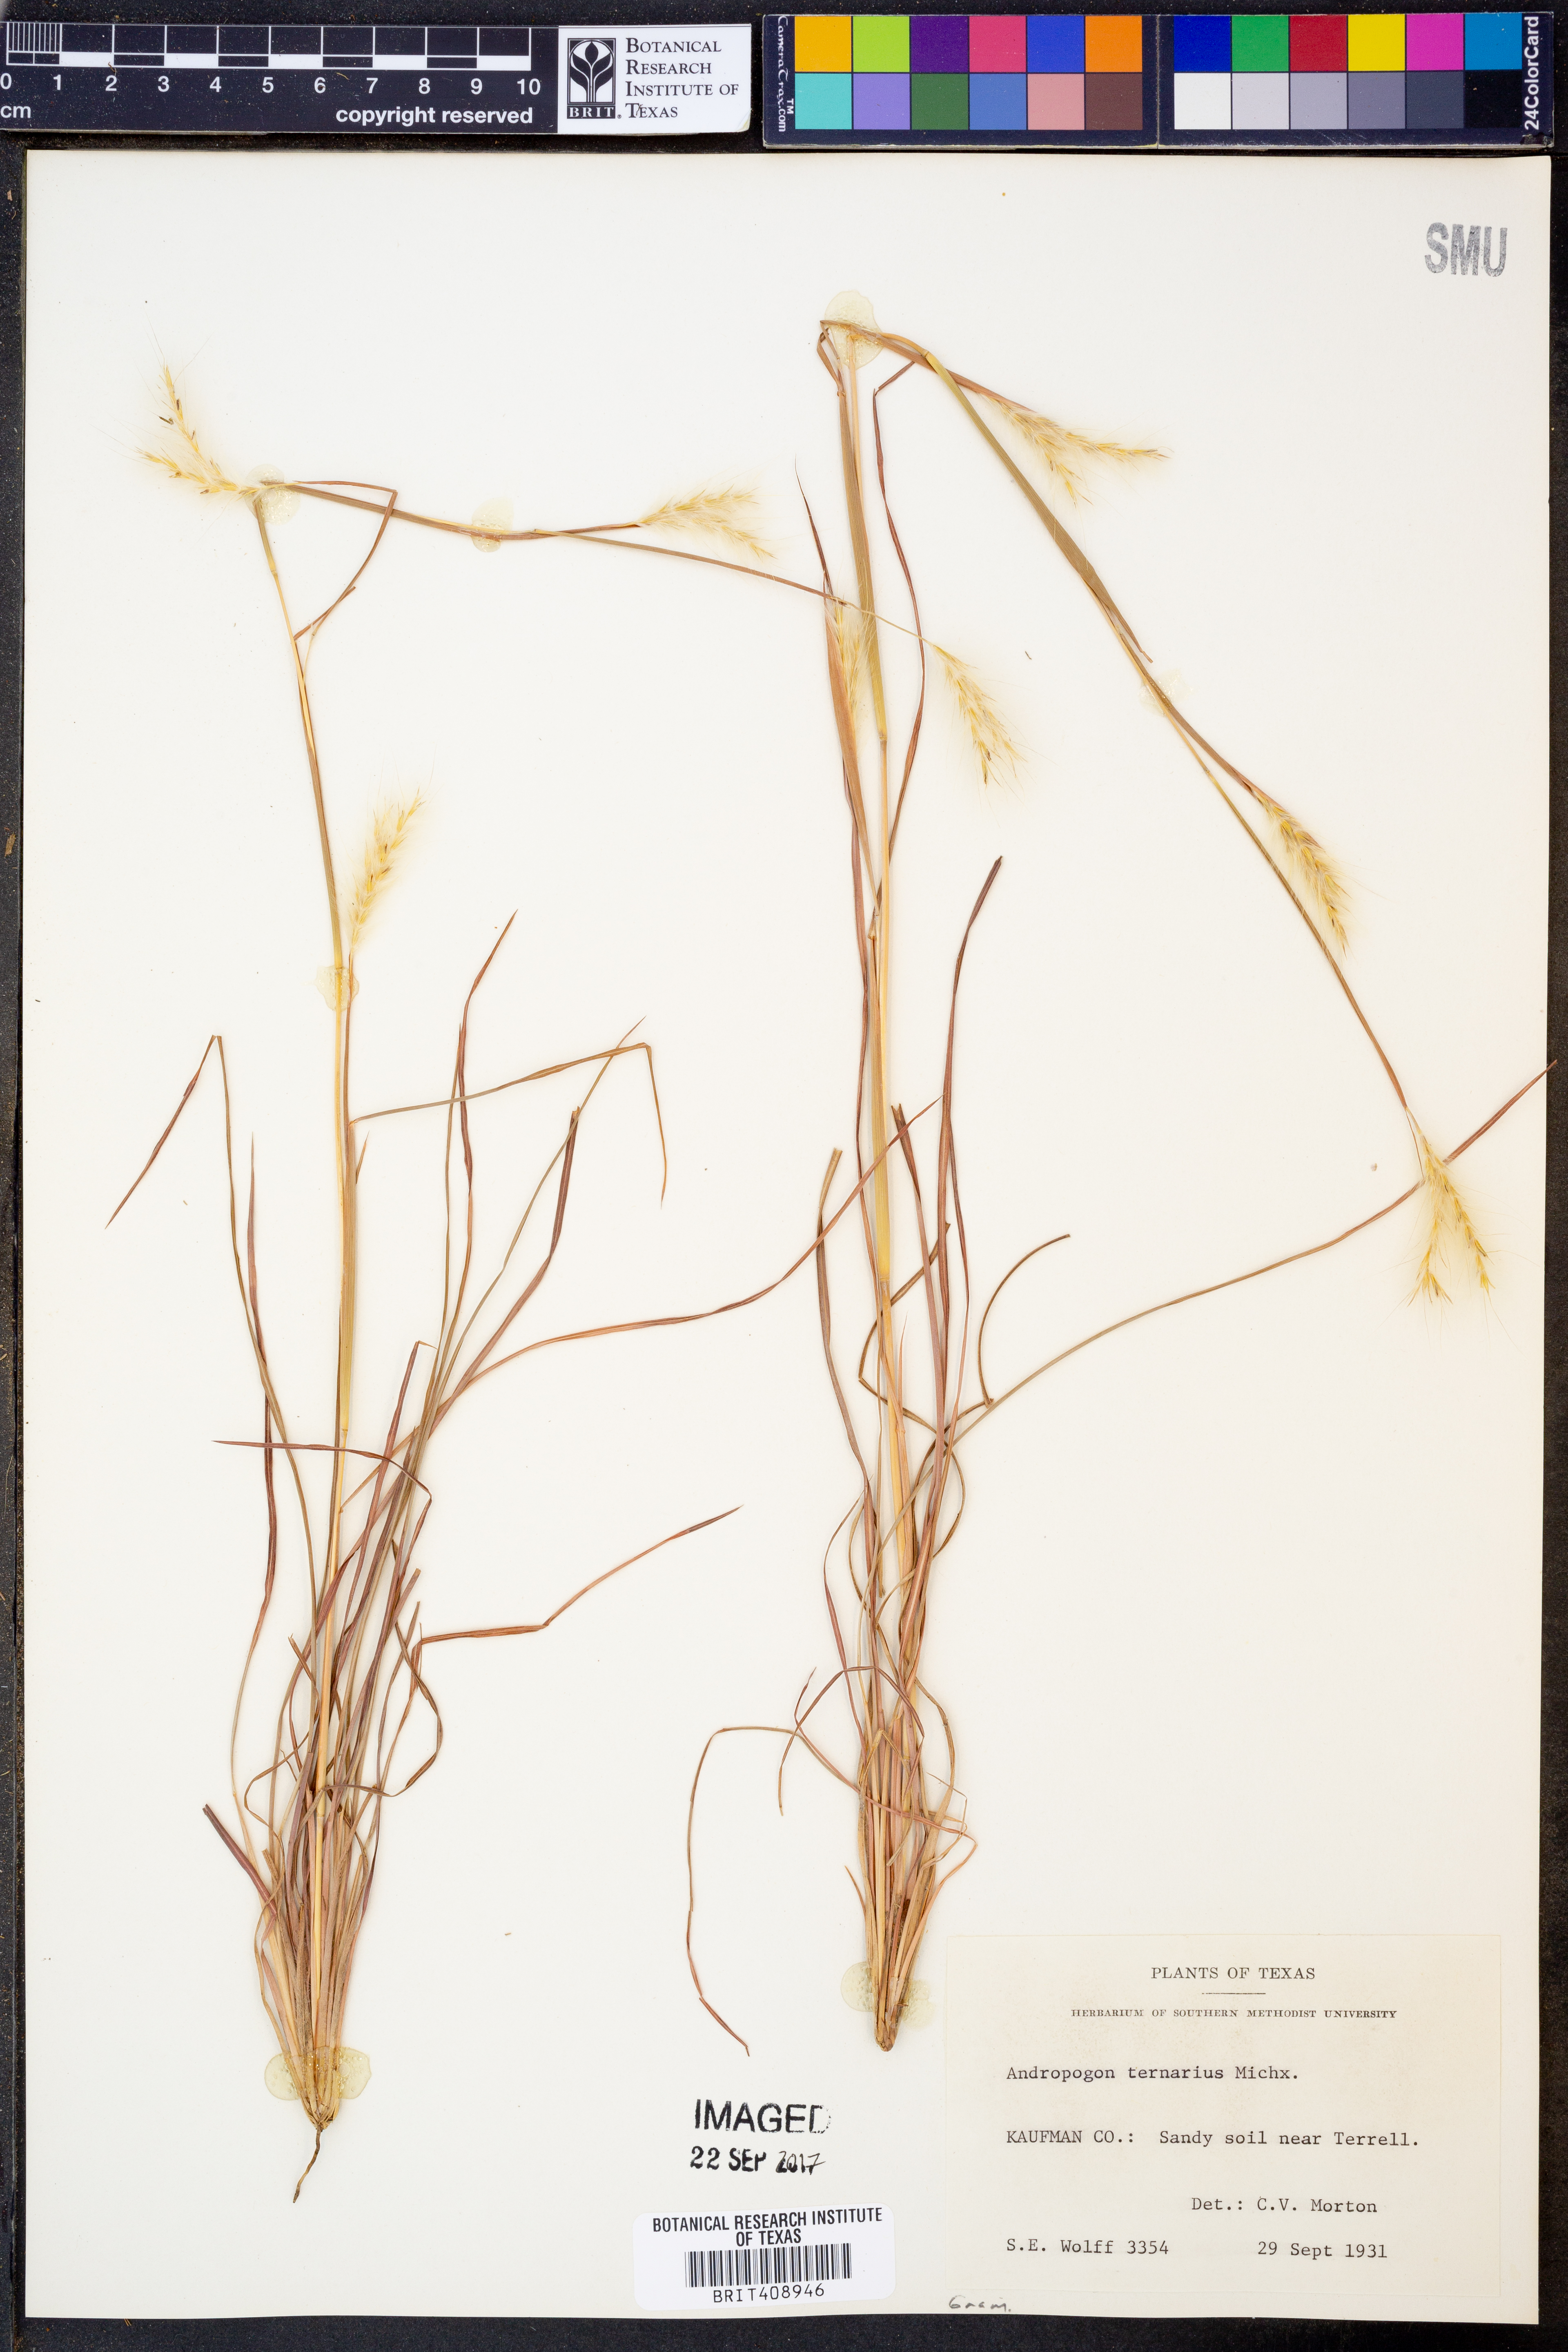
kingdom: Plantae
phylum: Tracheophyta
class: Liliopsida
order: Poales
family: Poaceae
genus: Andropogon
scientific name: Andropogon ternarius
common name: Split bluestem
